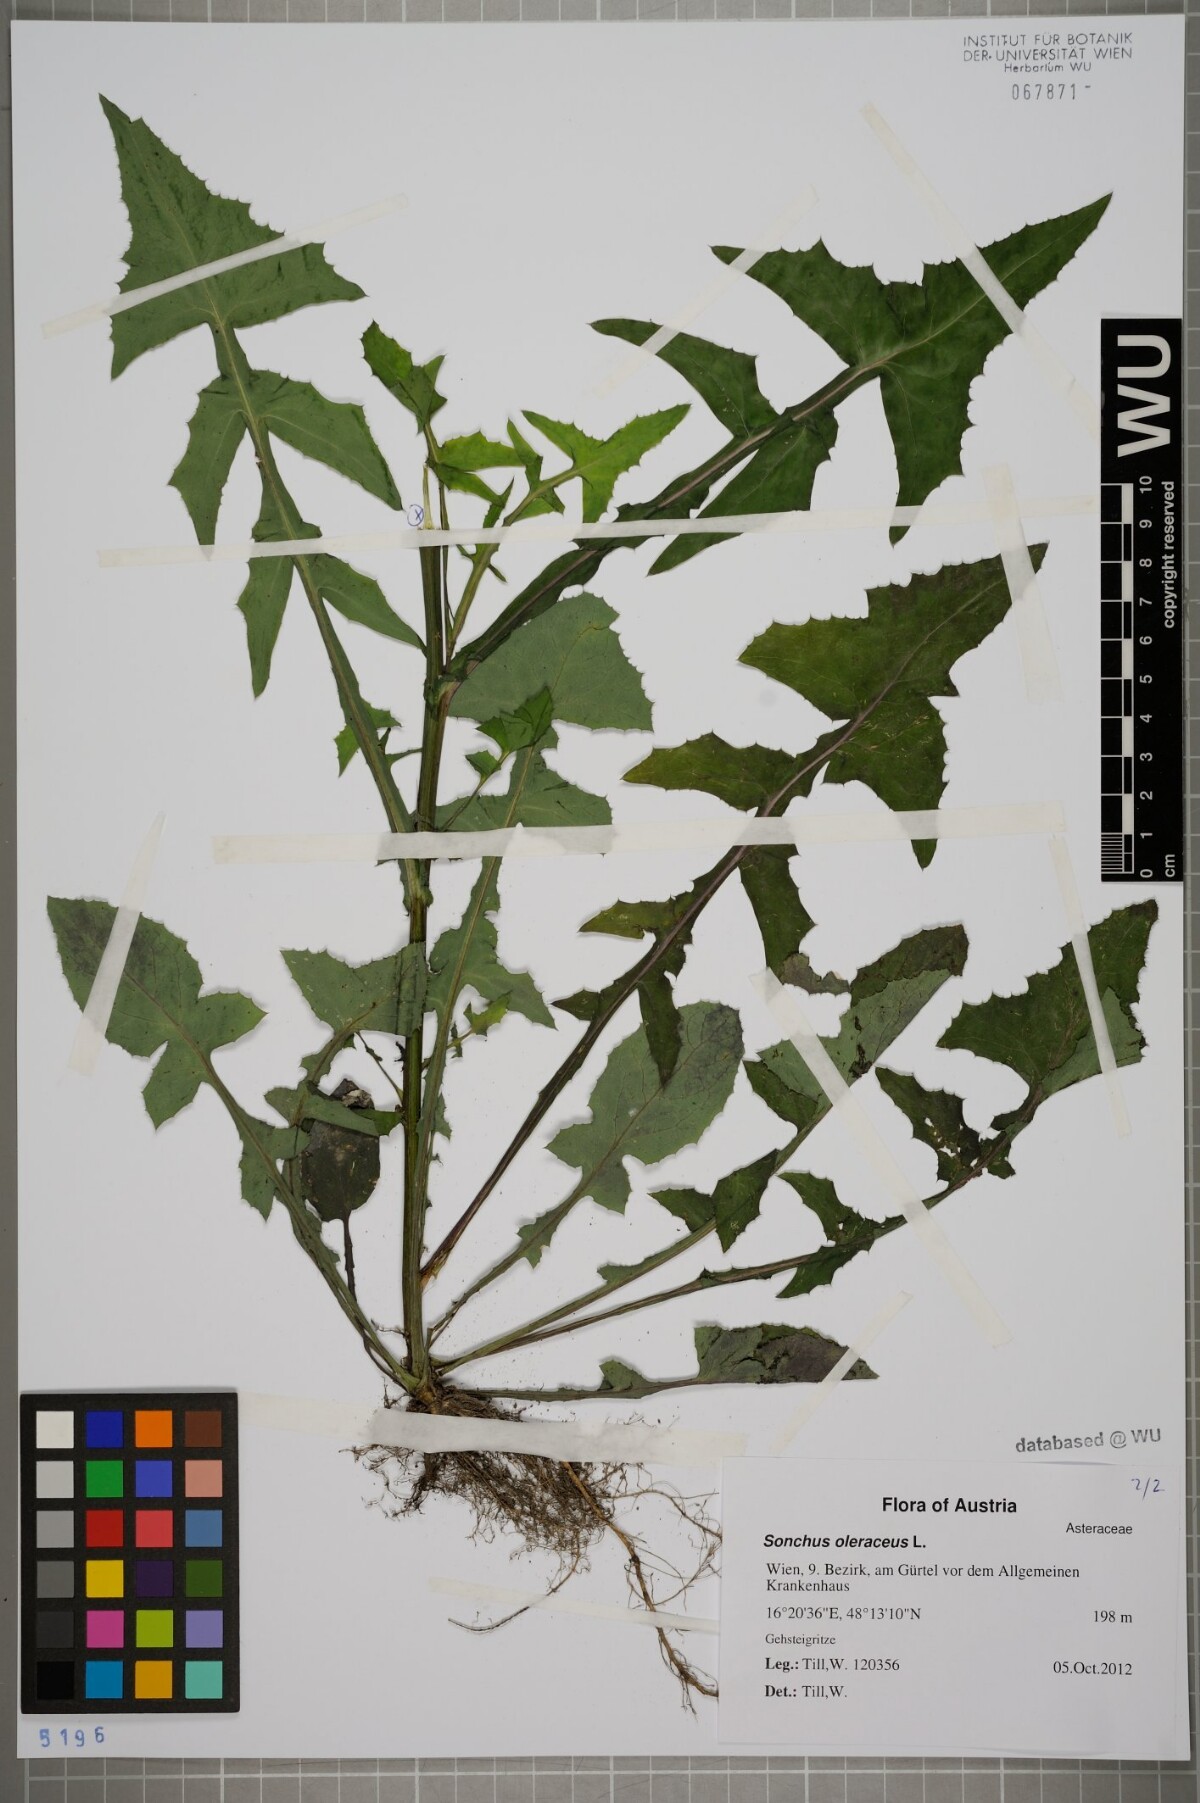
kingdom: Plantae
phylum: Tracheophyta
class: Magnoliopsida
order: Asterales
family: Asteraceae
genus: Sonchus
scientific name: Sonchus oleraceus
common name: Common sowthistle
